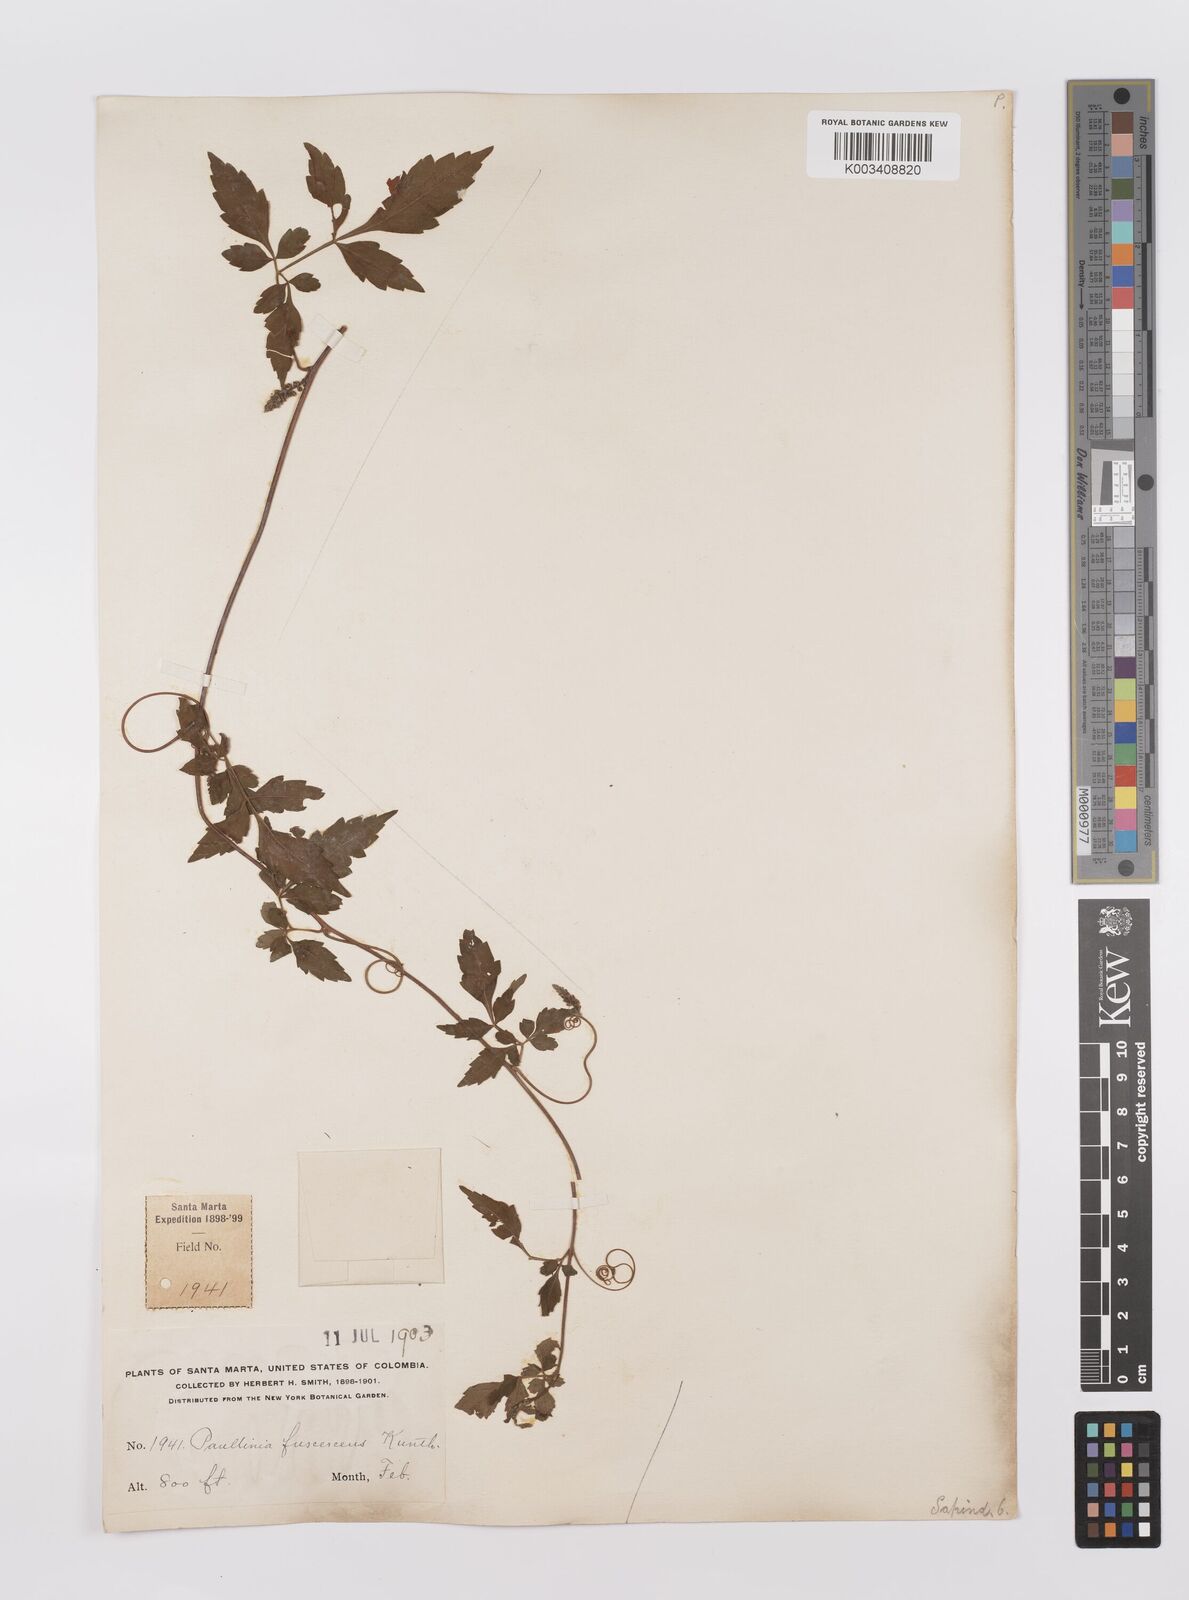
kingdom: Plantae
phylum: Tracheophyta
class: Magnoliopsida
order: Sapindales
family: Sapindaceae
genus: Paullinia
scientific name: Paullinia fuscescens
